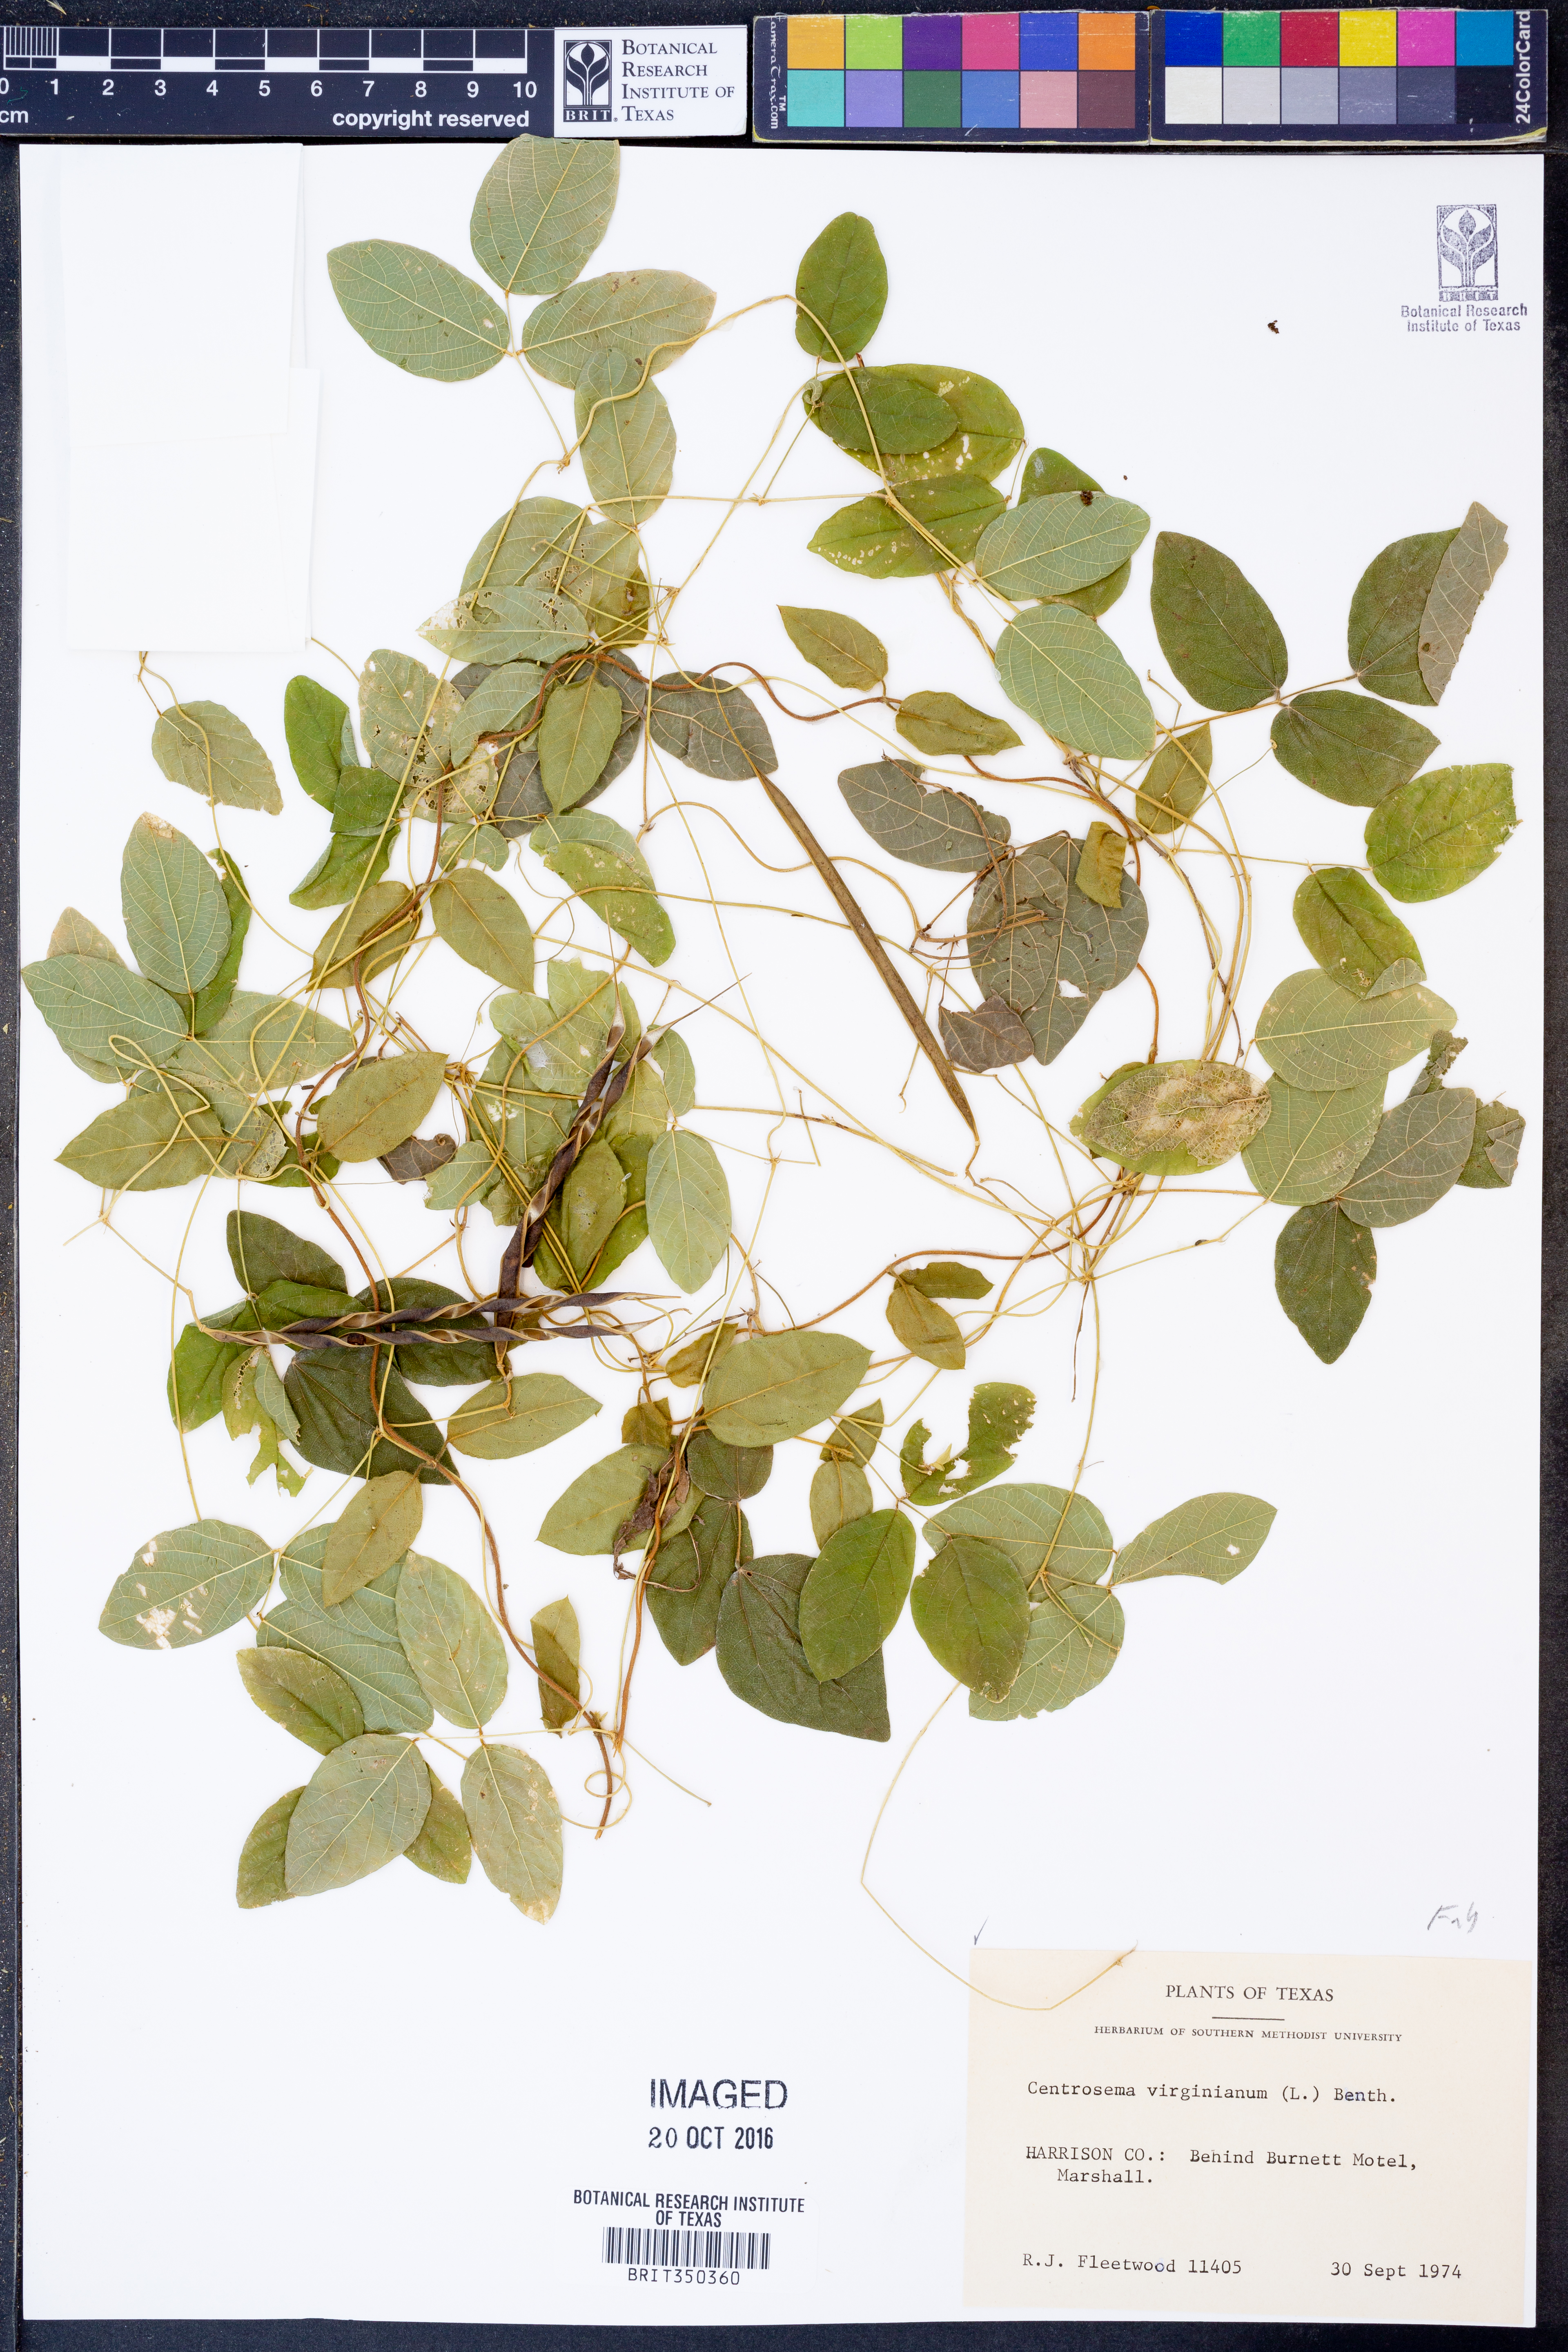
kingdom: Plantae
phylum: Tracheophyta
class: Magnoliopsida
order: Fabales
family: Fabaceae
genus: Centrosema
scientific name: Centrosema virginianum
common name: Butterfly-pea
